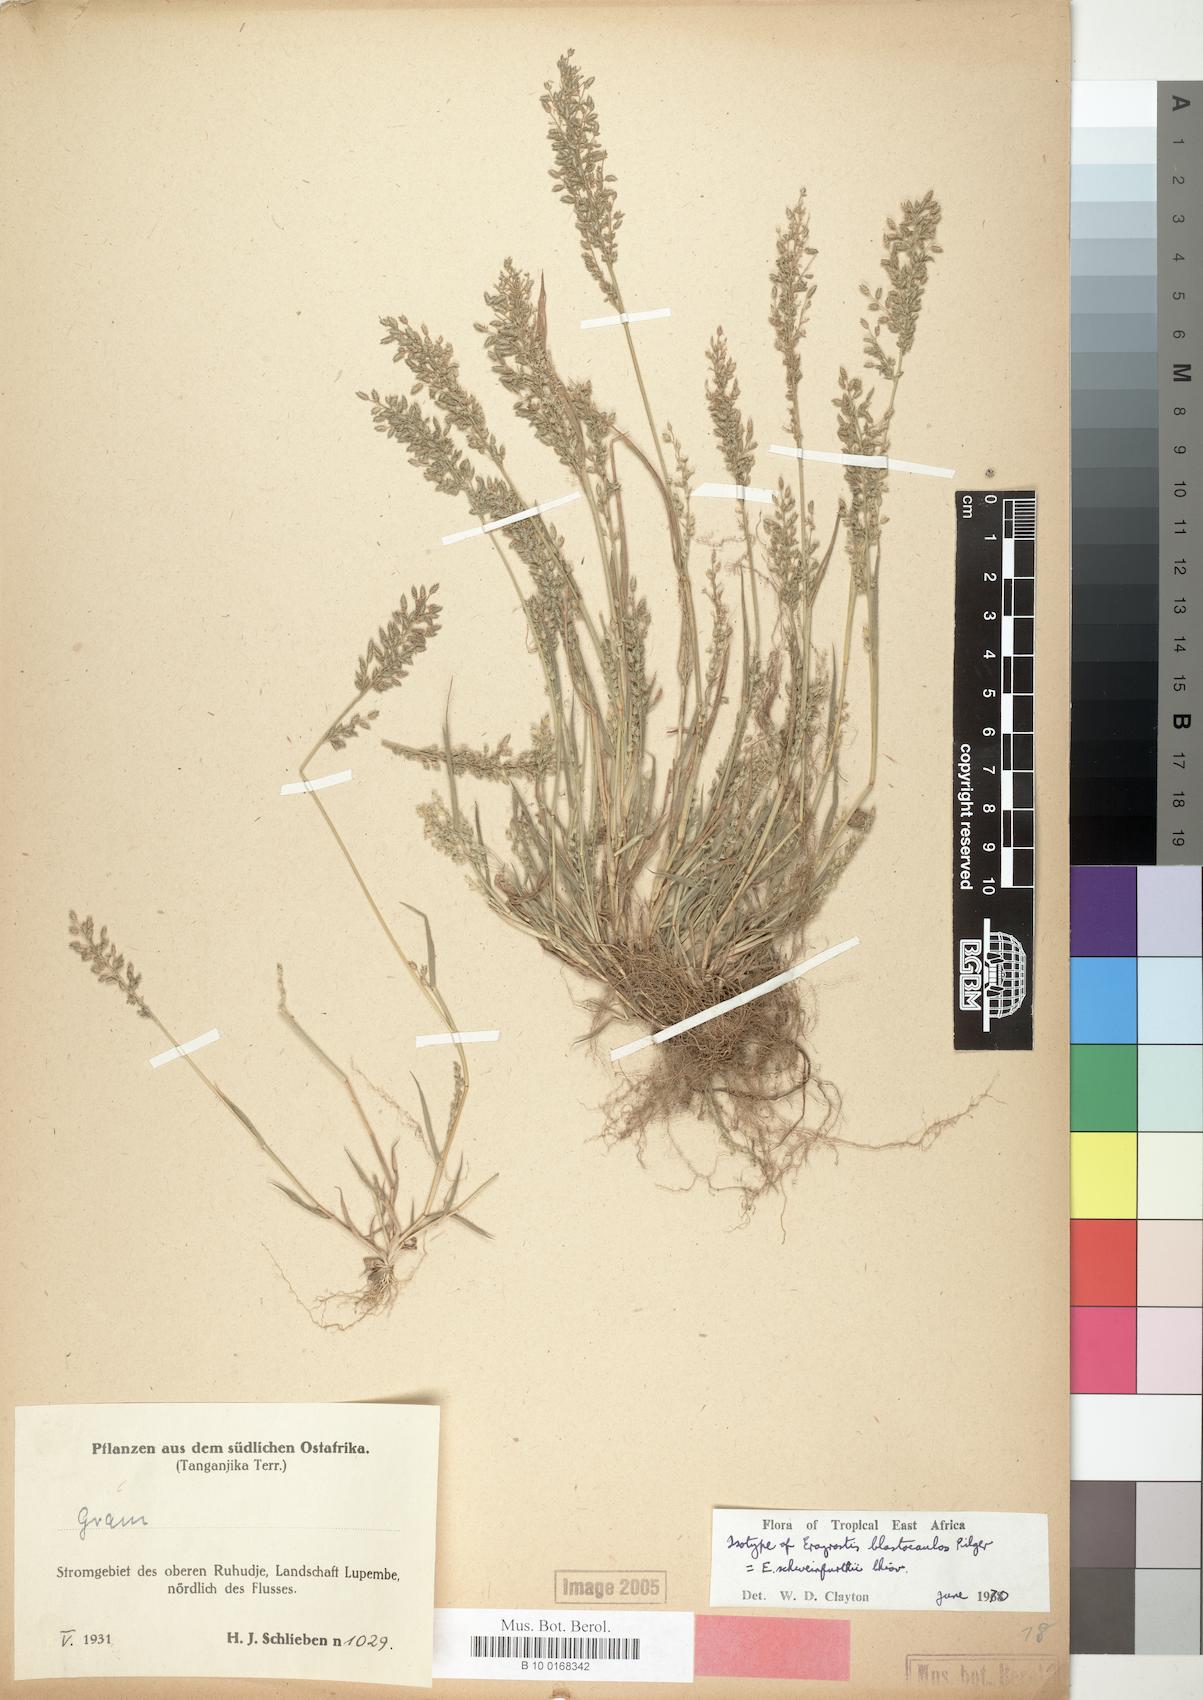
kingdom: Plantae
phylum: Tracheophyta
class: Liliopsida
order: Poales
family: Poaceae
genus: Eragrostis
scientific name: Eragrostis schweinfurthii
